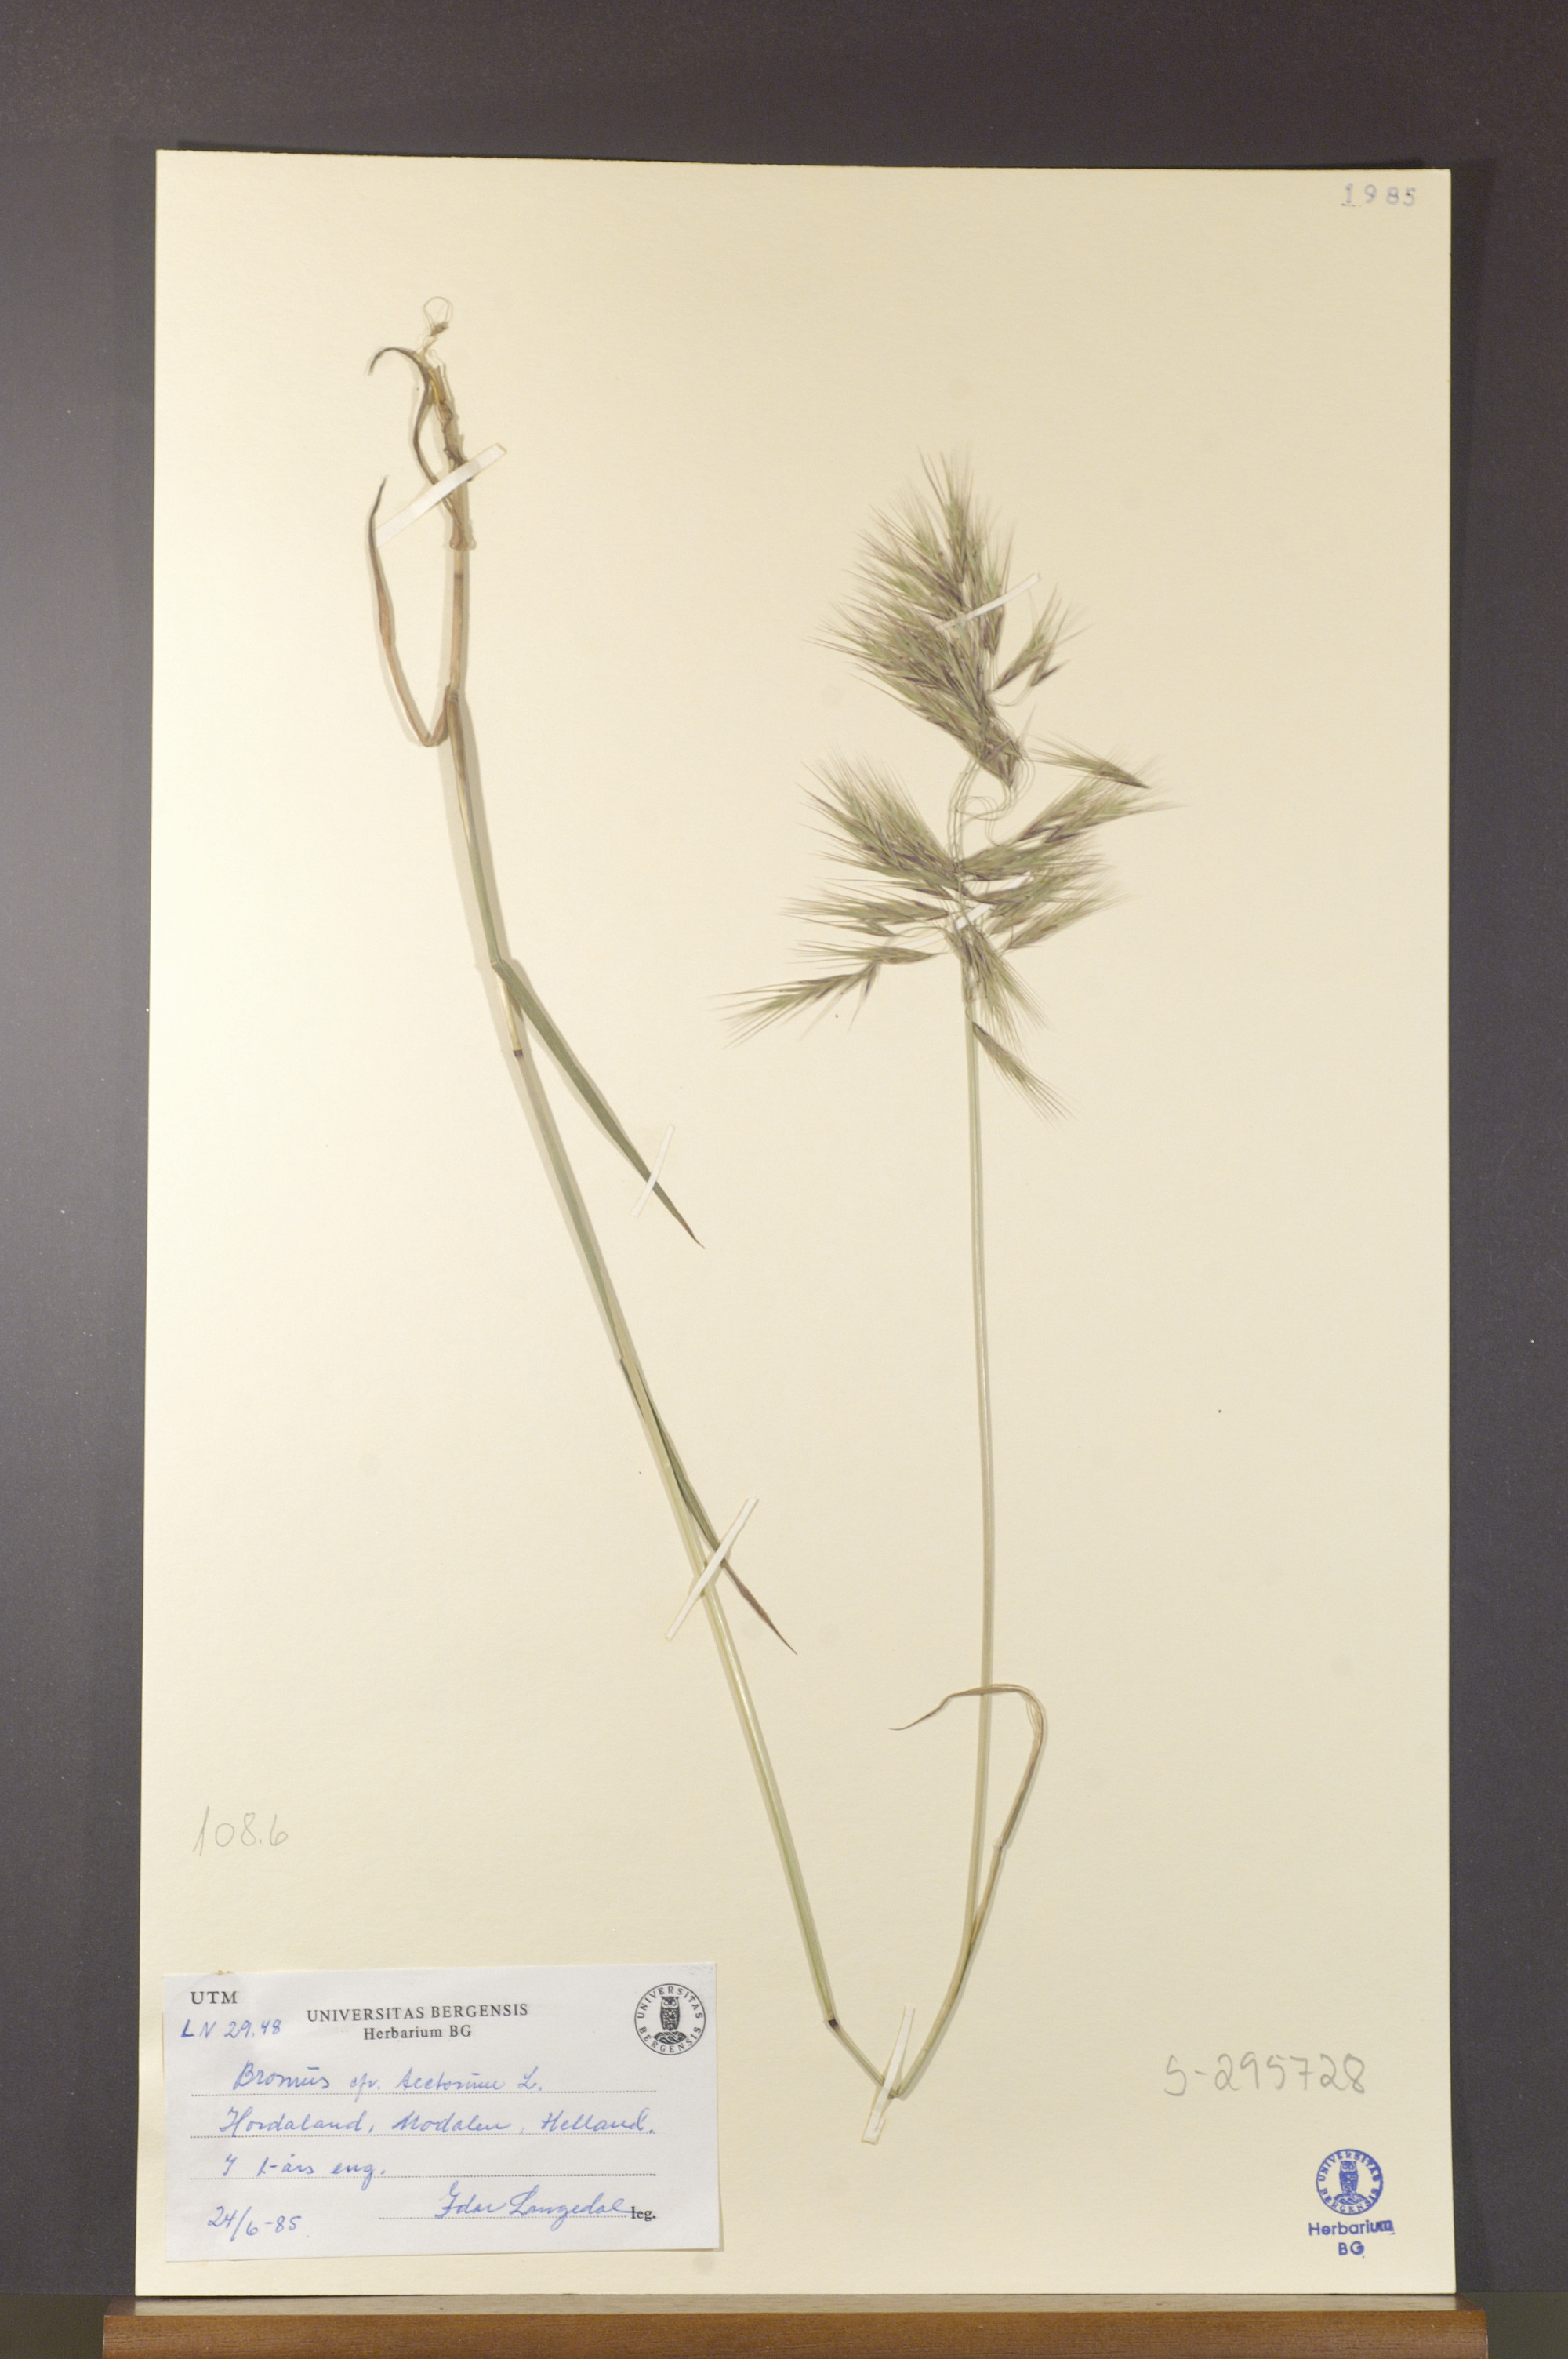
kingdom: Plantae
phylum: Tracheophyta
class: Liliopsida
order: Poales
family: Poaceae
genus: Bromus
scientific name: Bromus tectorum
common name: Cheatgrass
